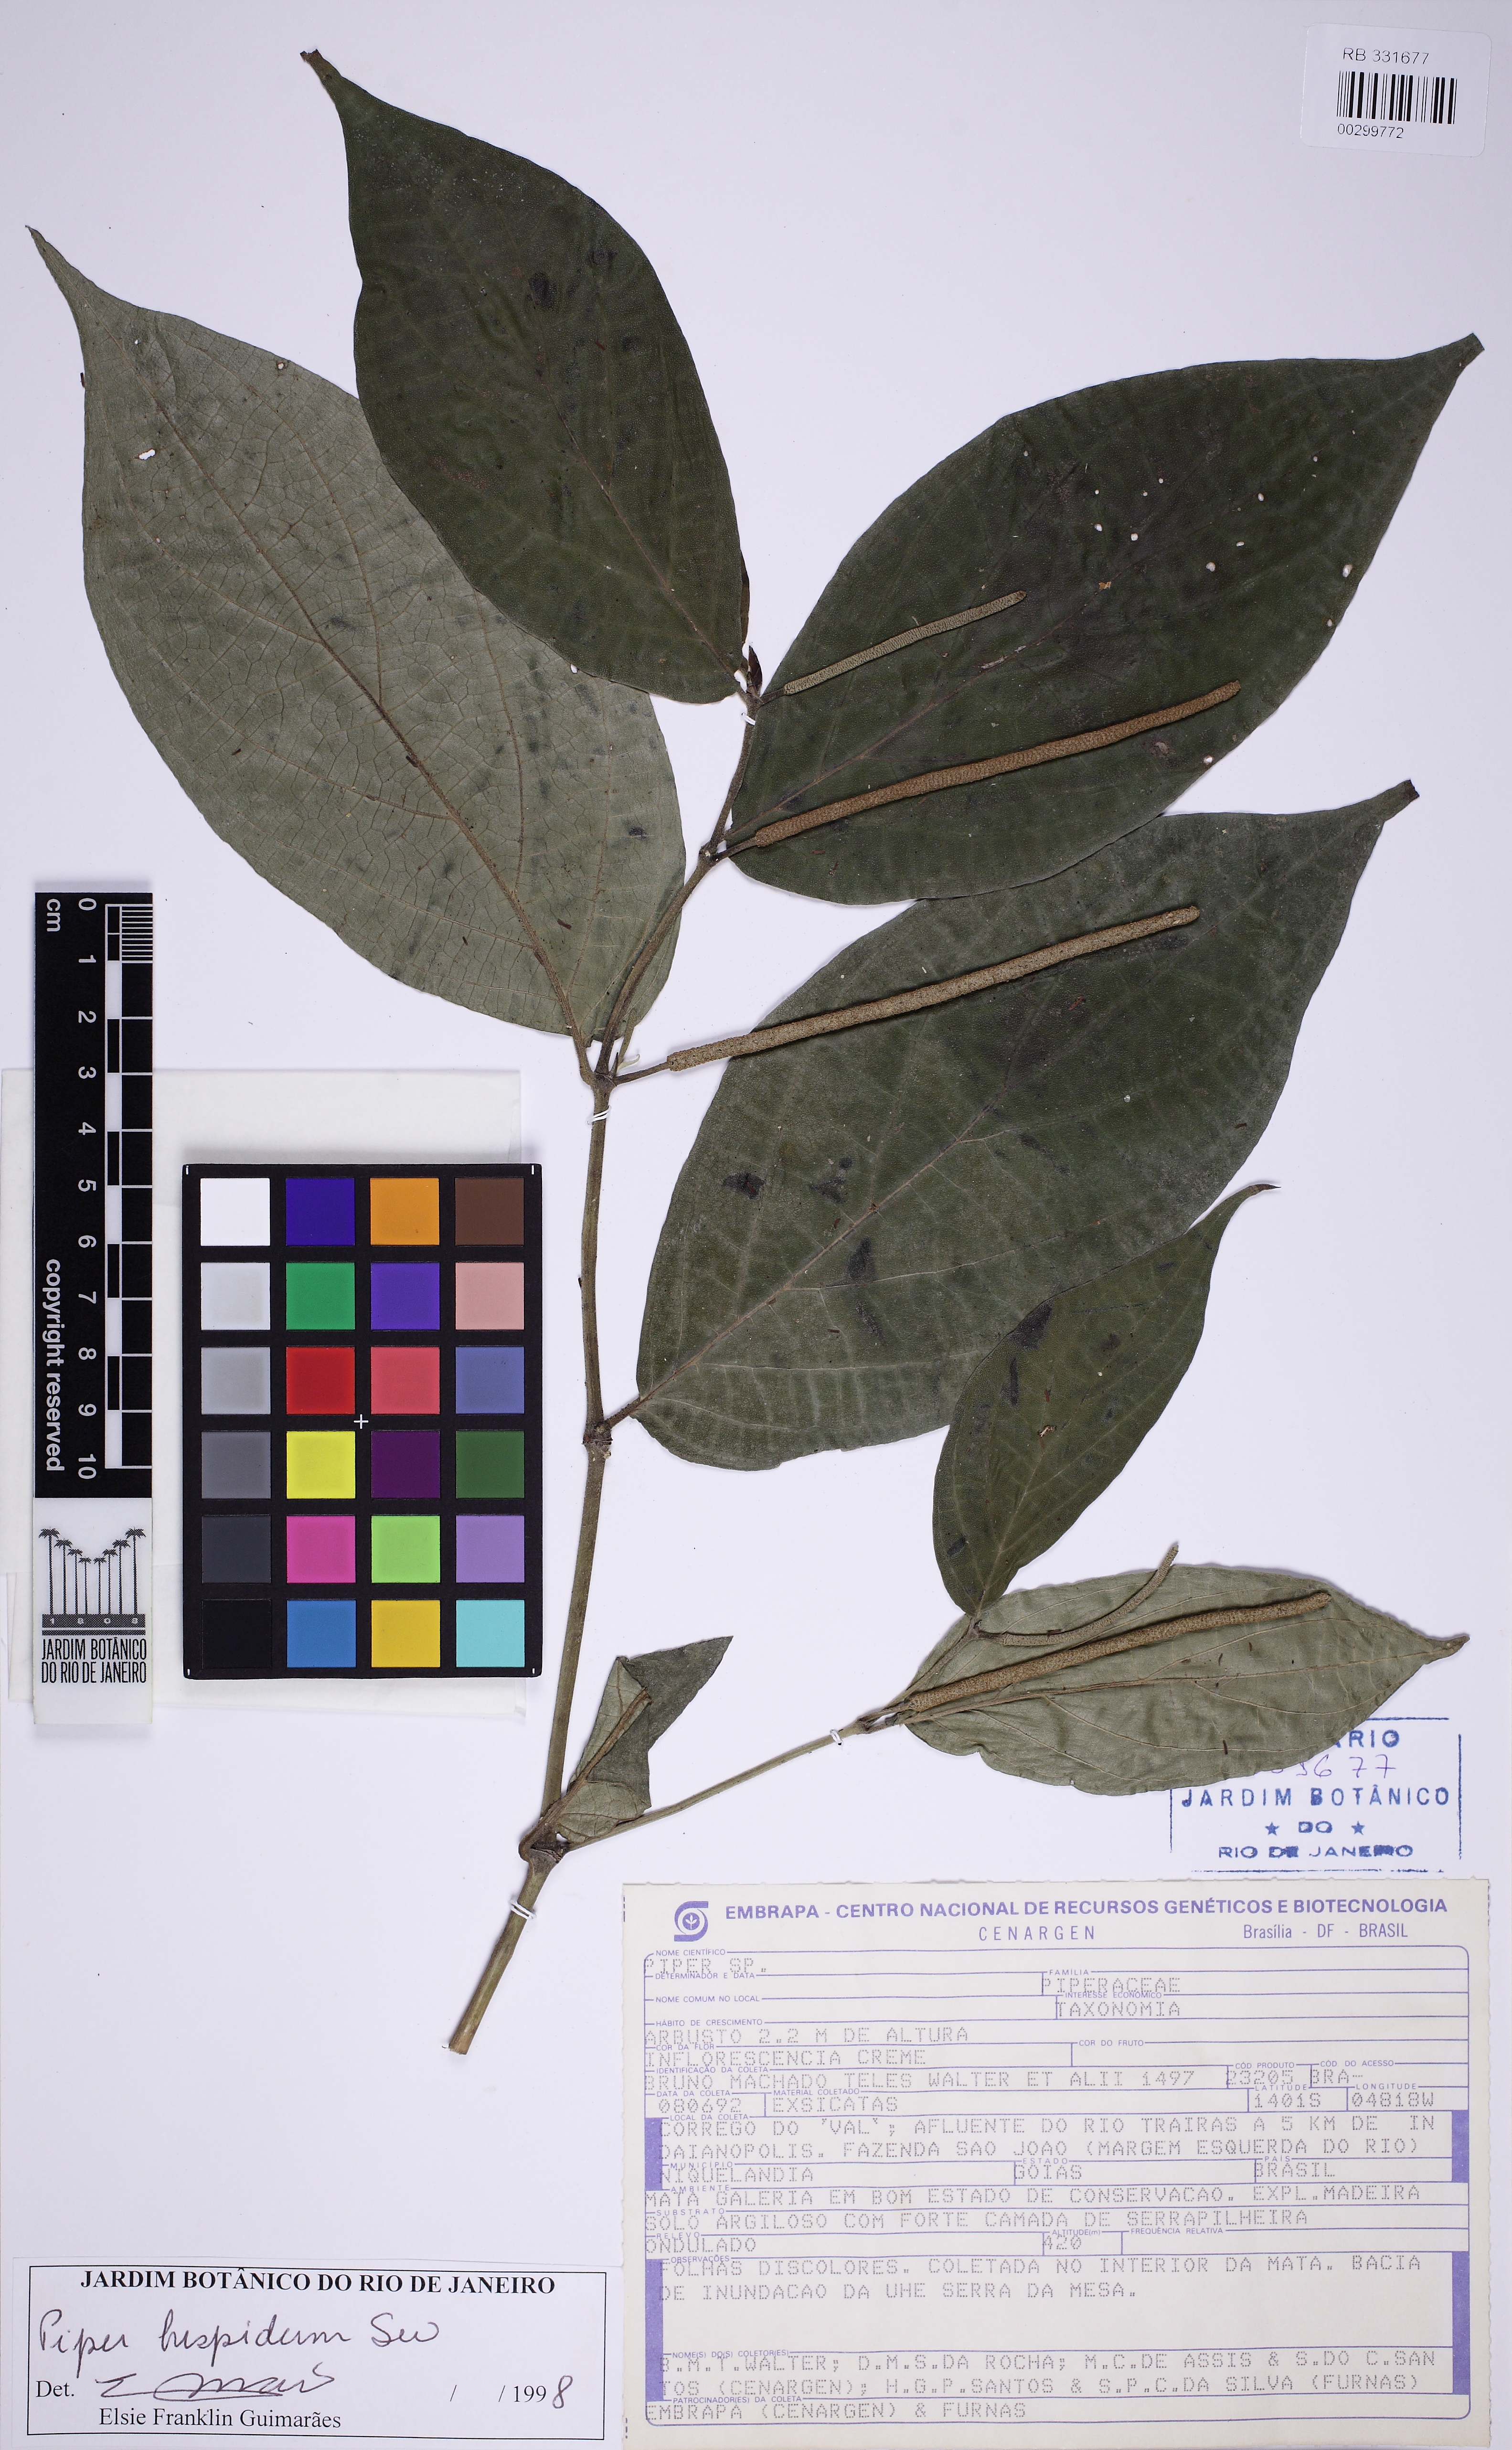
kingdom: Plantae
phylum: Tracheophyta
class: Magnoliopsida
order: Piperales
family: Piperaceae
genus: Piper
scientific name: Piper hispidum
